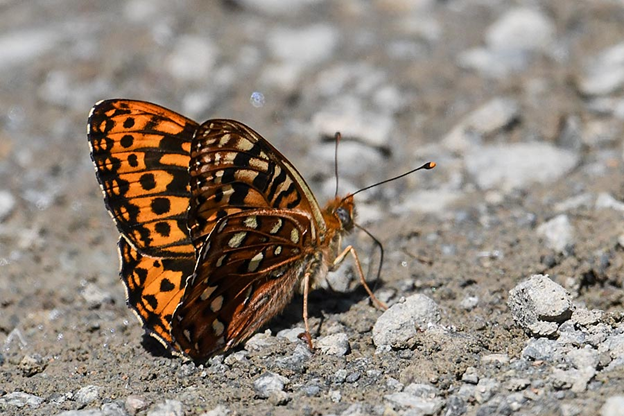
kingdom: Animalia
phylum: Arthropoda
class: Insecta
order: Lepidoptera
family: Nymphalidae
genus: Speyeria
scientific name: Speyeria hydaspe
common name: Hydaspe Fritillary
